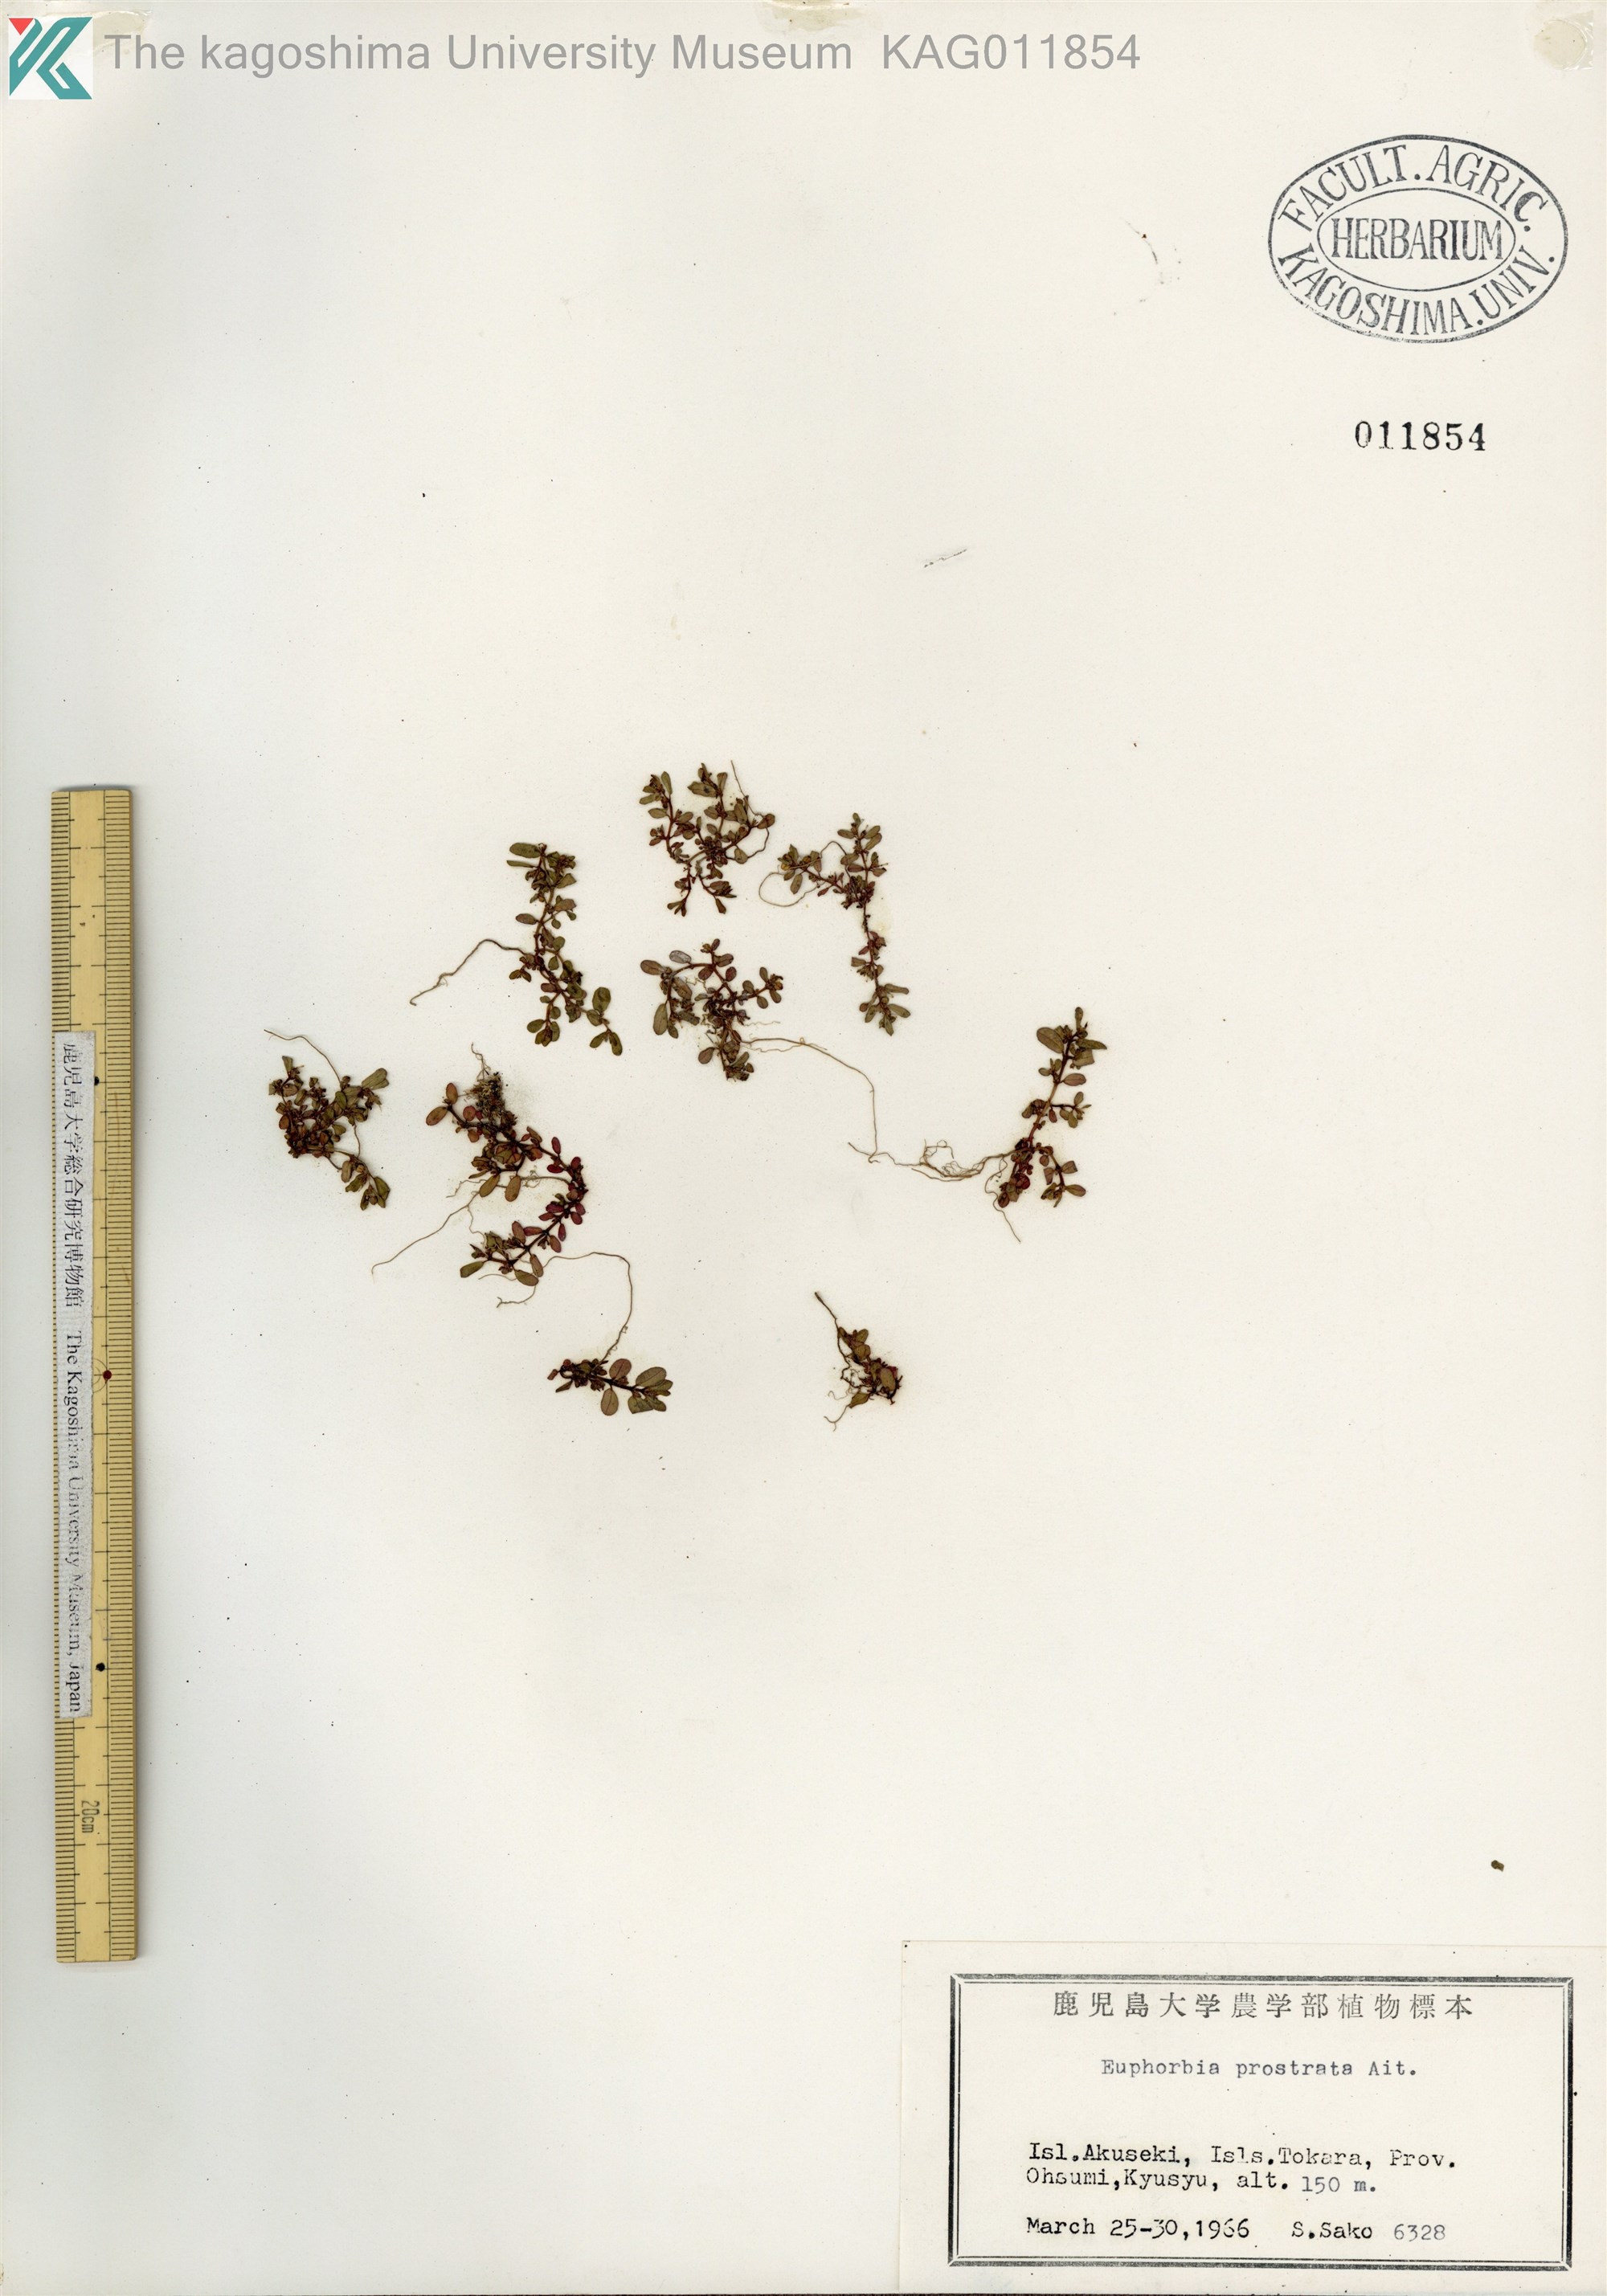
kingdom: Plantae
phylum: Tracheophyta
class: Magnoliopsida
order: Malpighiales
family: Euphorbiaceae
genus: Euphorbia
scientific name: Euphorbia prostrata
